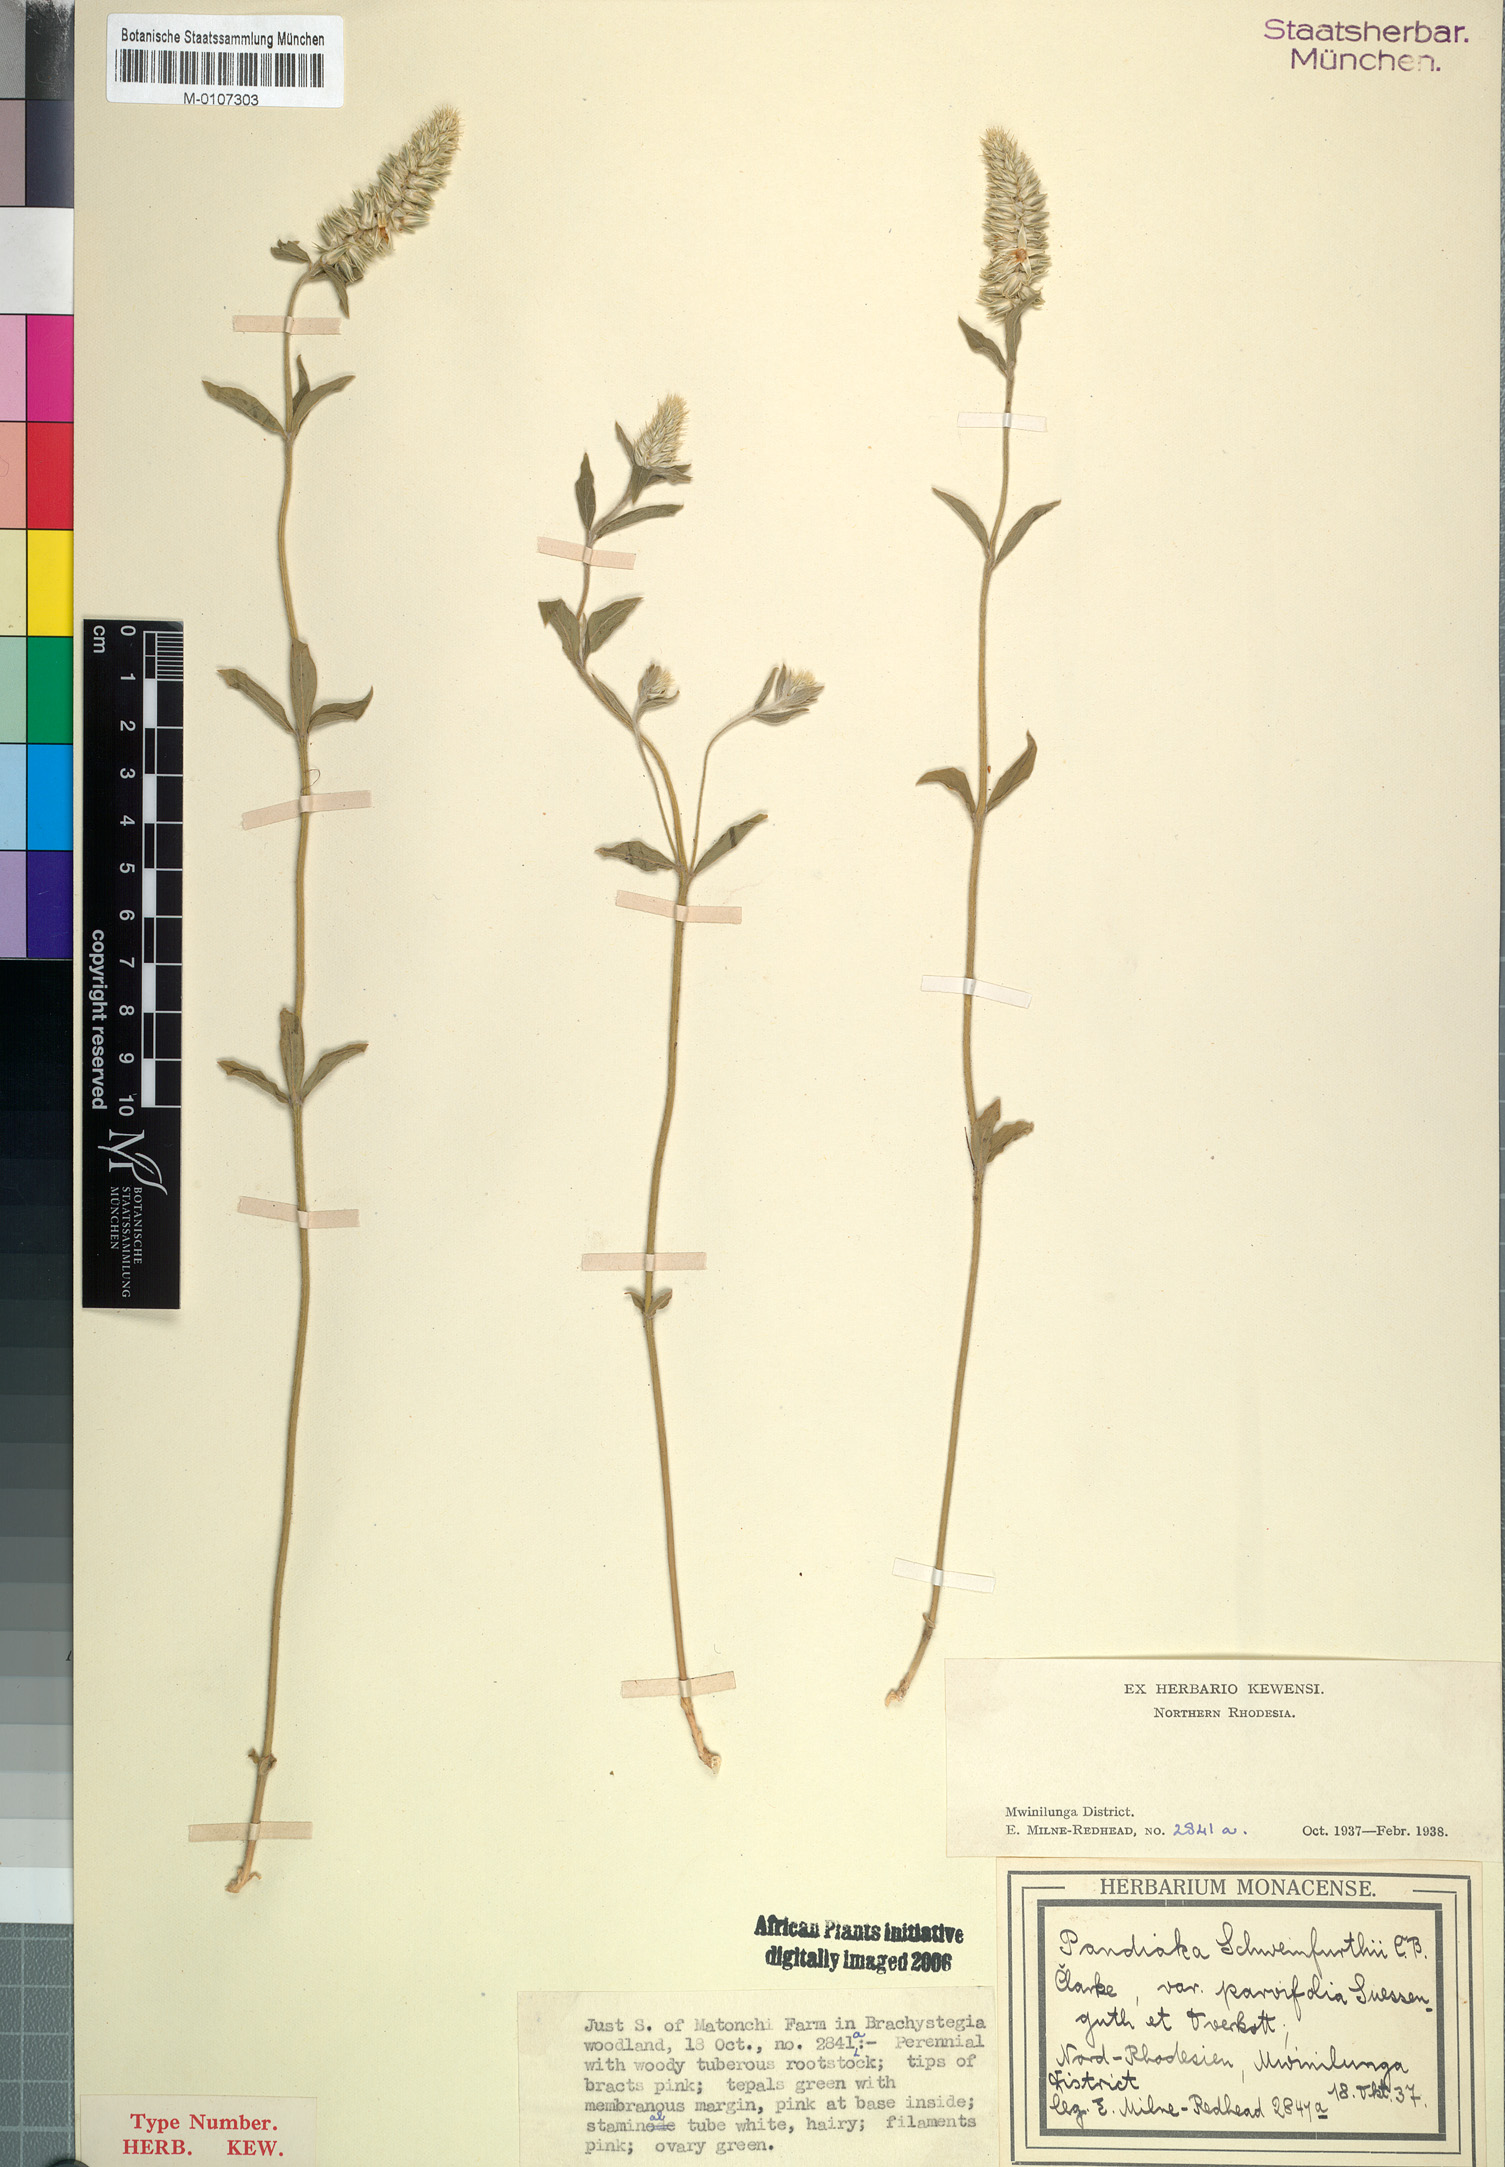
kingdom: Plantae
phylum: Tracheophyta
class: Magnoliopsida
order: Caryophyllales
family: Amaranthaceae
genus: Pandiaka
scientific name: Pandiaka welwitschii
